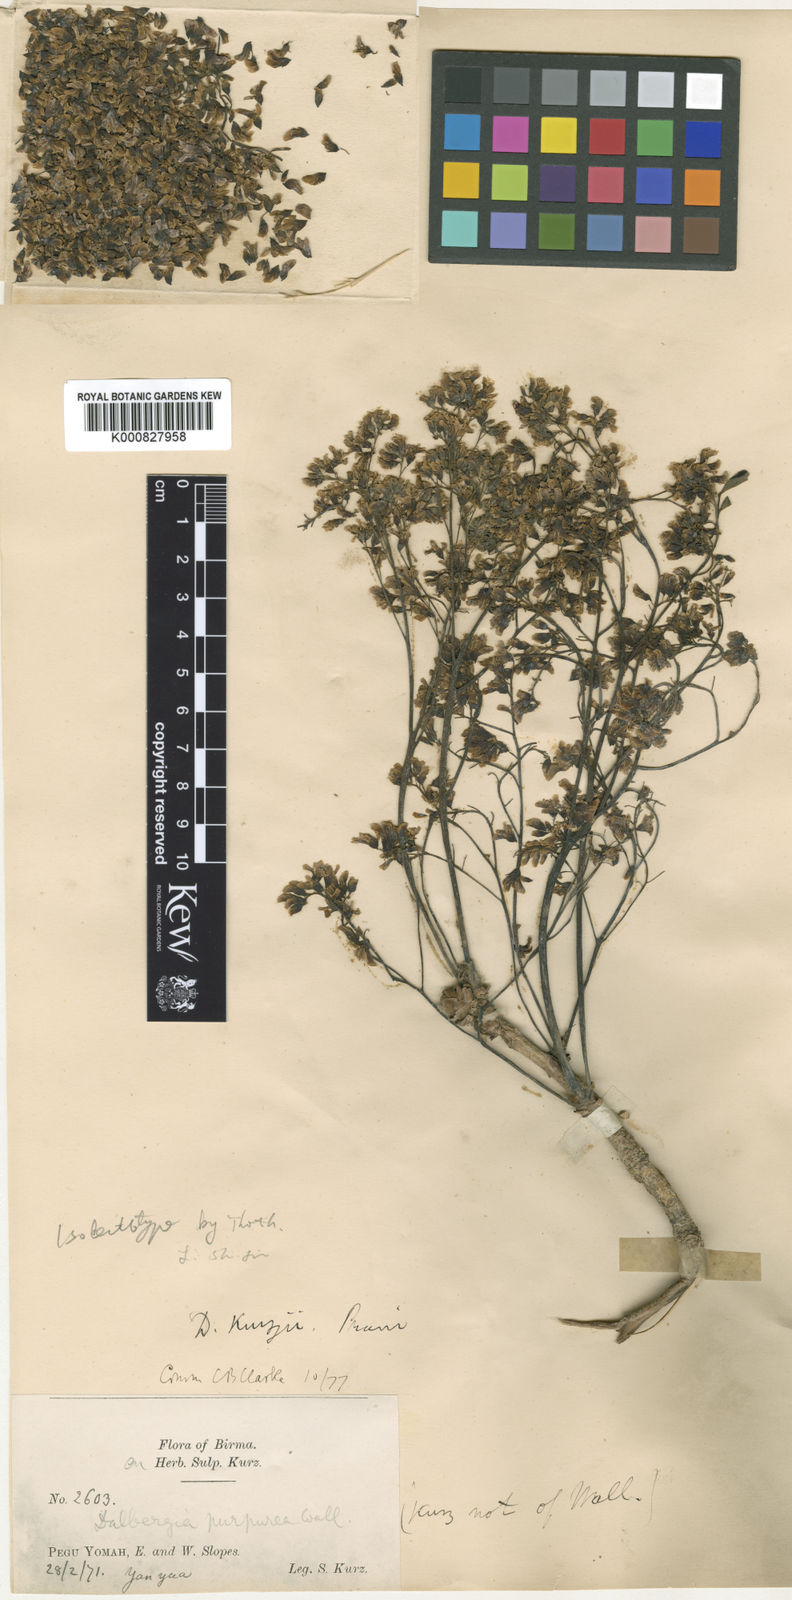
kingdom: Plantae
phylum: Tracheophyta
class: Magnoliopsida
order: Fabales
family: Fabaceae
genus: Dalbergia
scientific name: Dalbergia cana
